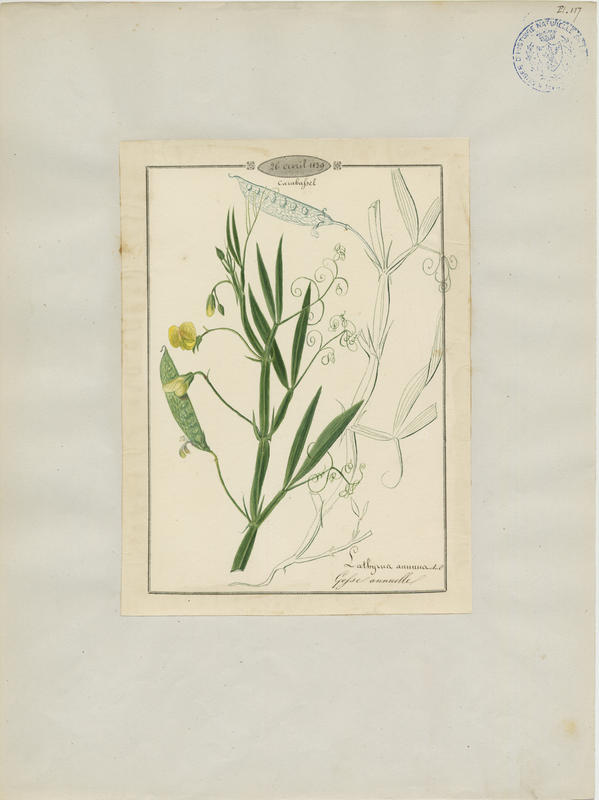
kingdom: Plantae
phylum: Tracheophyta
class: Magnoliopsida
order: Fabales
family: Fabaceae
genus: Lathyrus
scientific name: Lathyrus annuus
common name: Fodder pea
